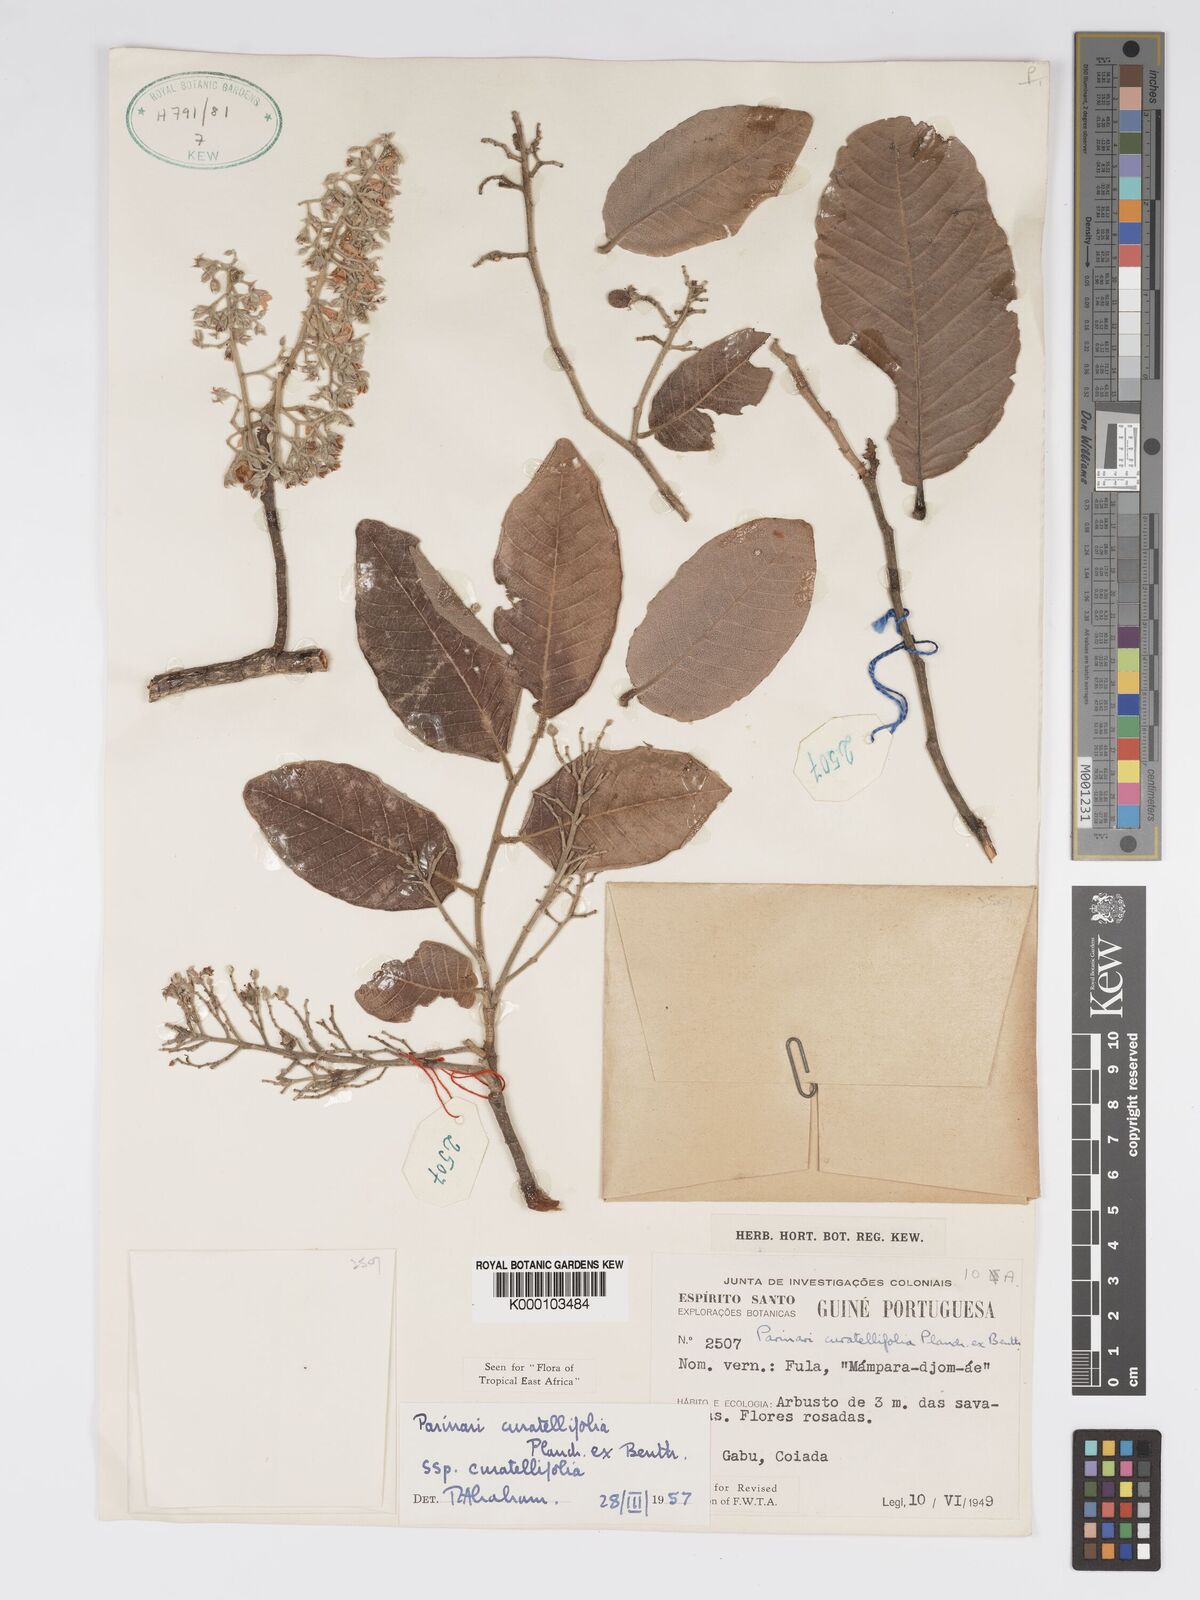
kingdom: Plantae
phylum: Tracheophyta
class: Magnoliopsida
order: Malpighiales
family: Chrysobalanaceae
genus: Parinari
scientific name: Parinari curatellifolia
